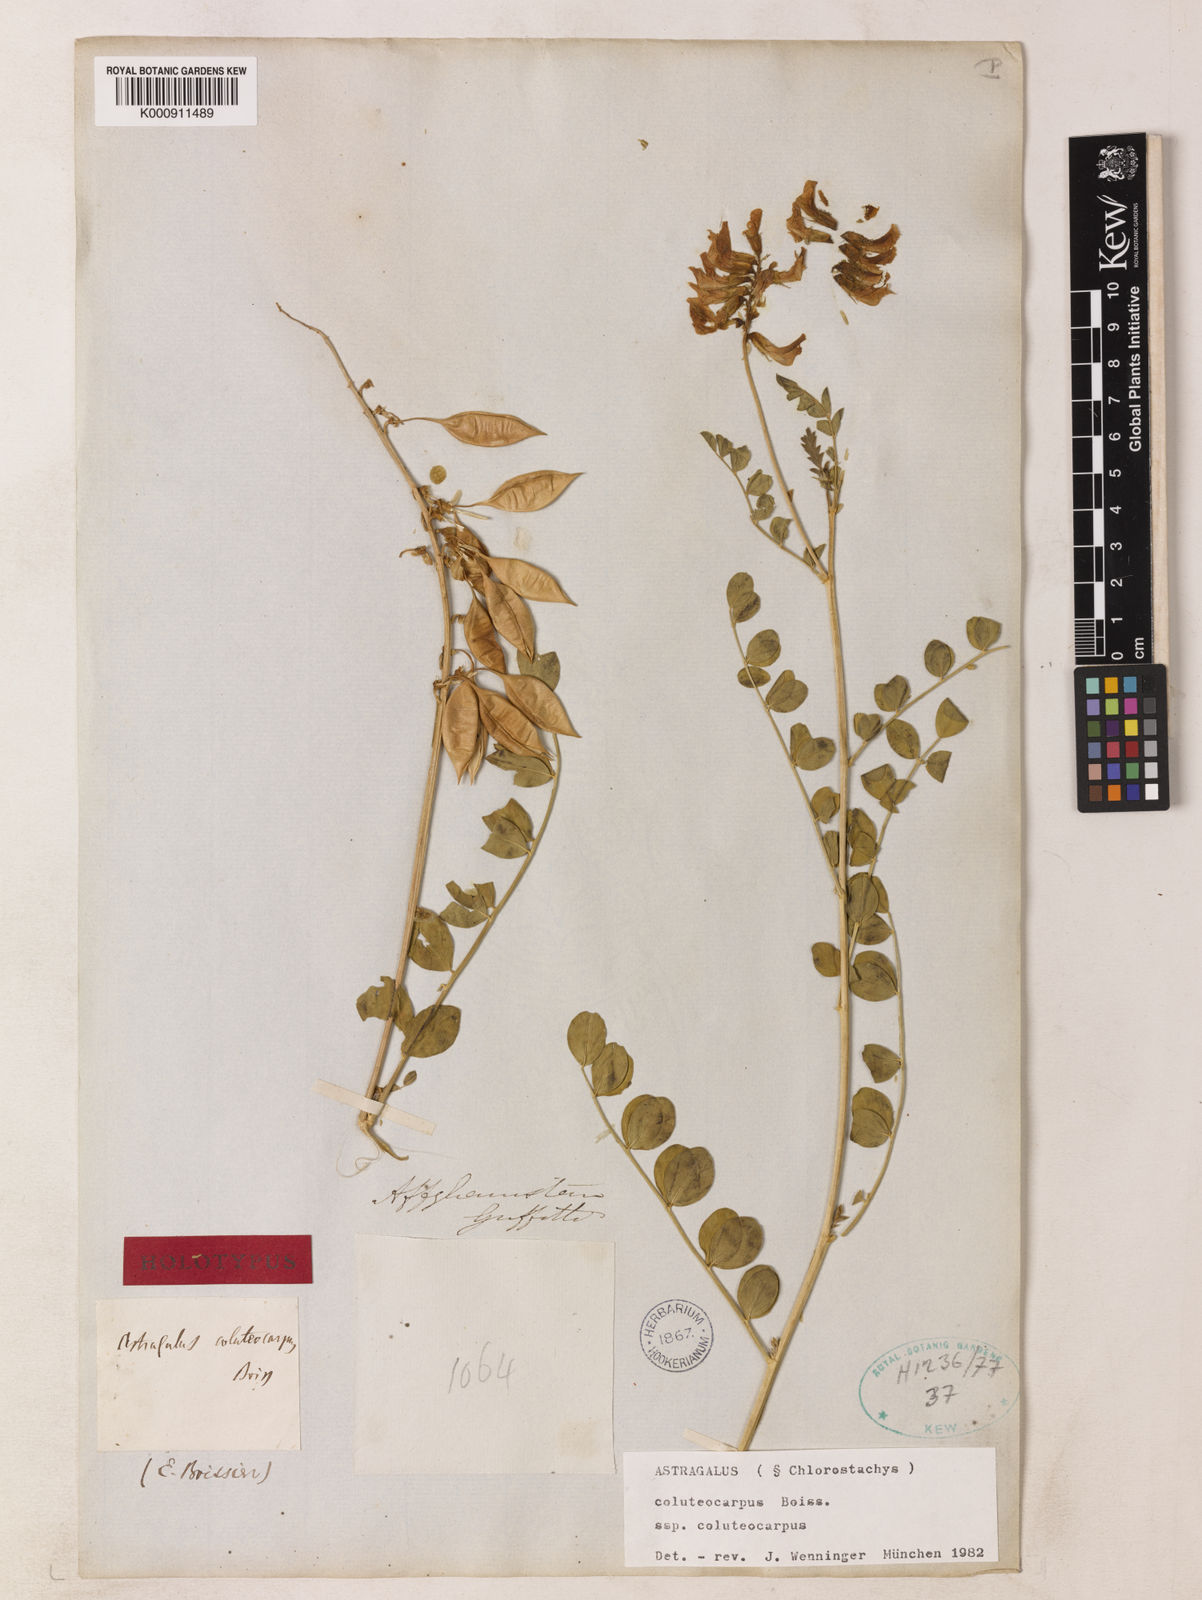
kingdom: Plantae
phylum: Tracheophyta
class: Magnoliopsida
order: Fabales
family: Fabaceae
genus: Astragalus
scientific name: Astragalus coluteocarpus
